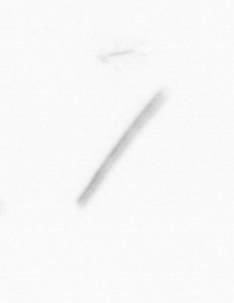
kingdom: Chromista
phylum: Ochrophyta
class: Bacillariophyceae
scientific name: Bacillariophyceae
